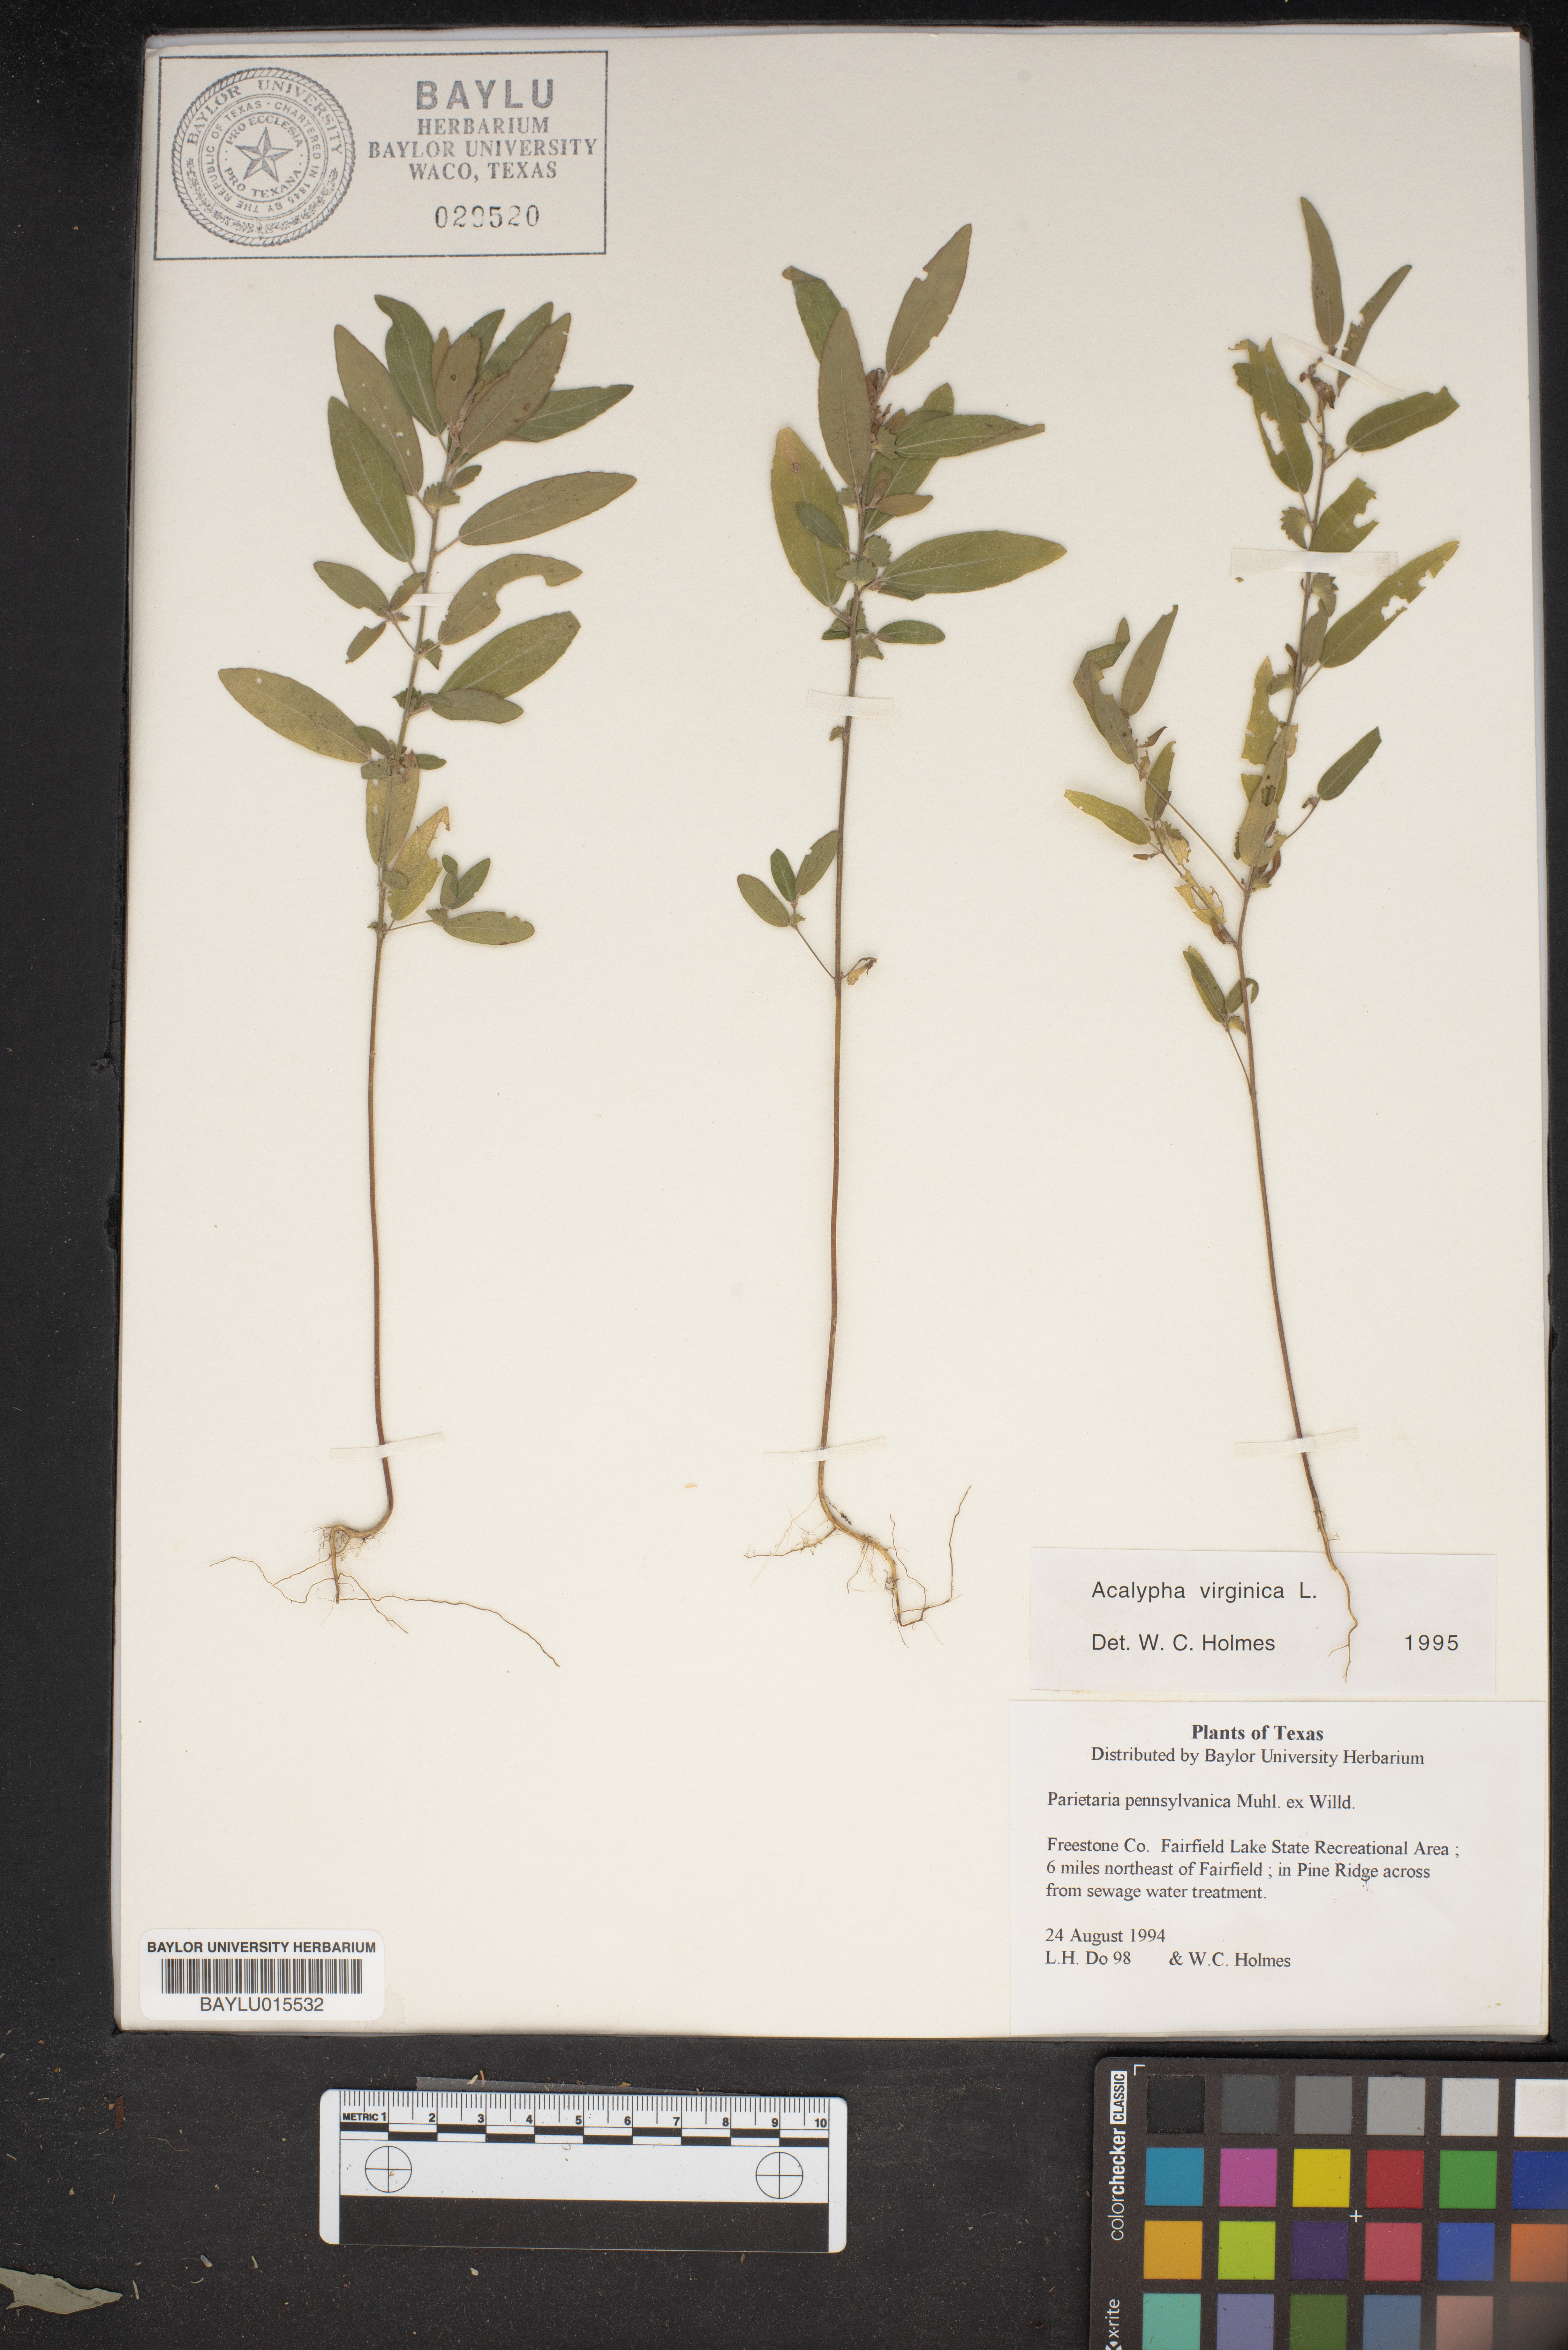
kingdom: Plantae
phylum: Tracheophyta
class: Magnoliopsida
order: Malpighiales
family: Euphorbiaceae
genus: Acalypha
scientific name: Acalypha virginica
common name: Virginia copperleaf
